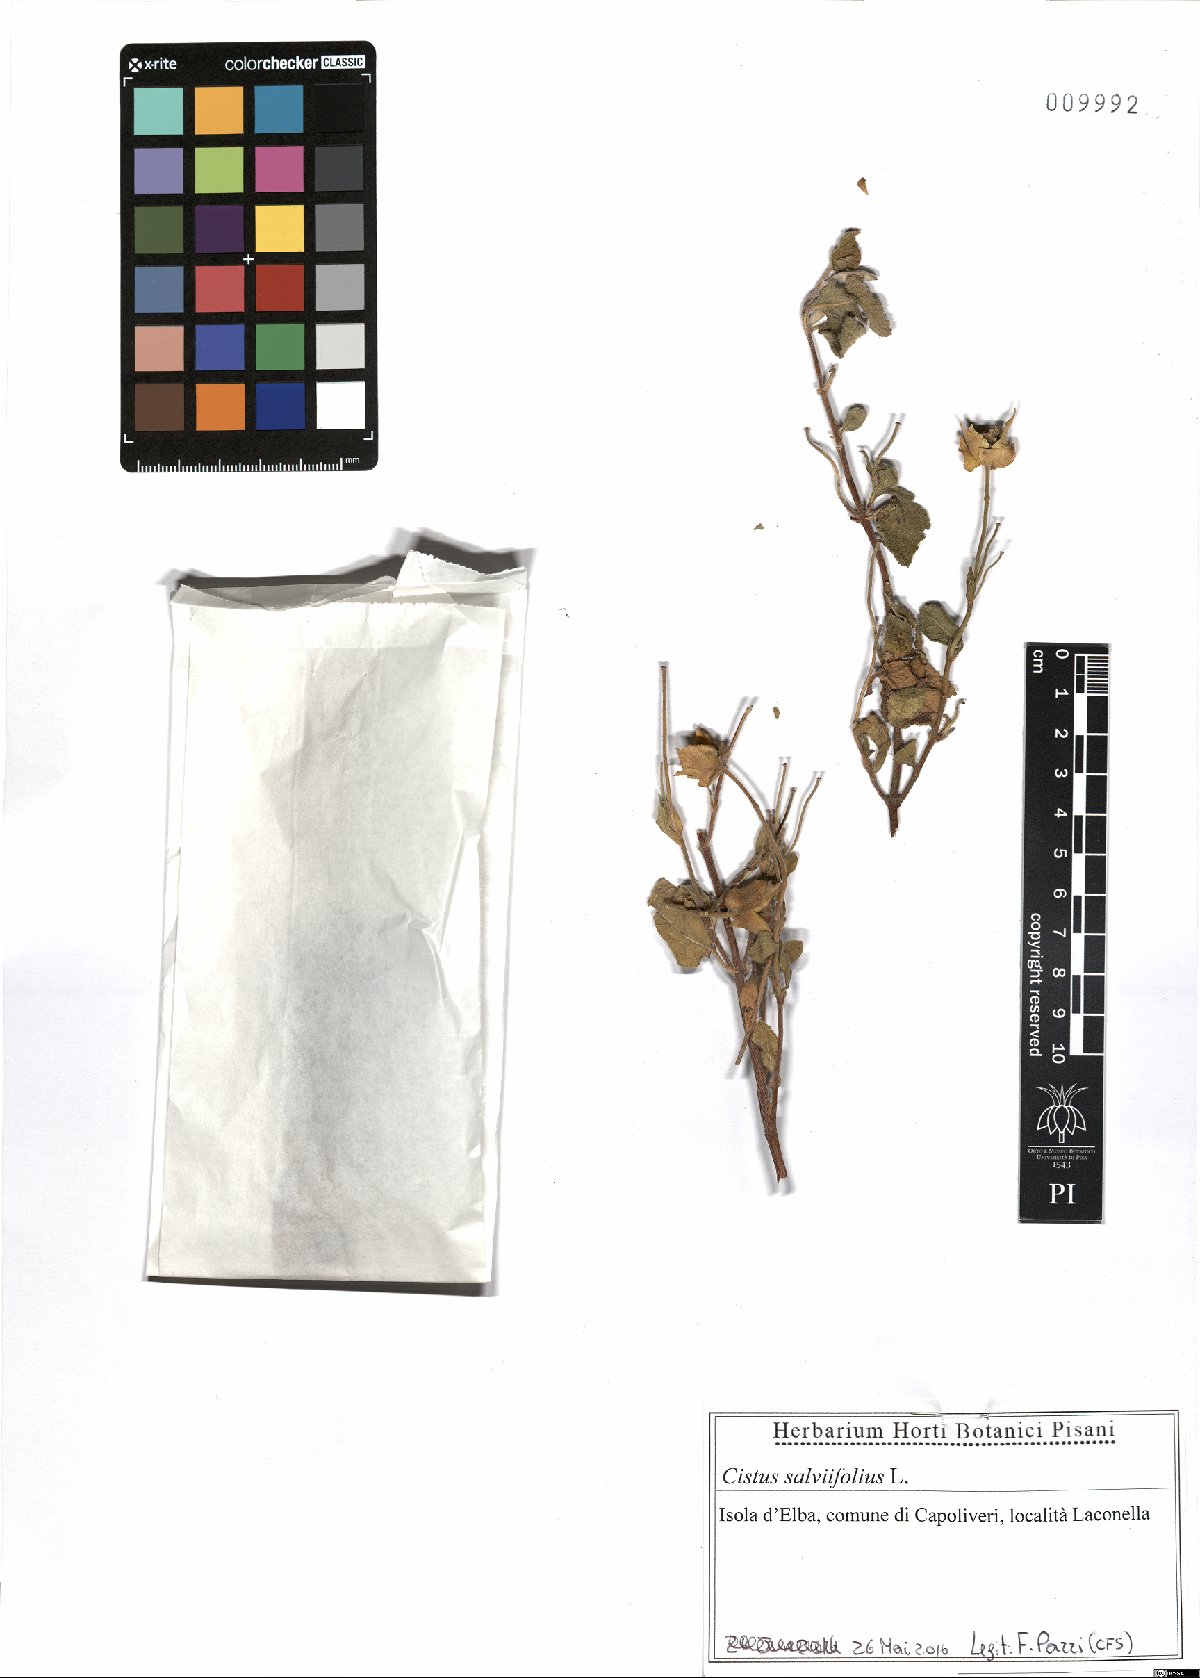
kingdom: Plantae
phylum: Tracheophyta
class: Magnoliopsida
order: Malvales
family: Cistaceae
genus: Cistus
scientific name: Cistus salviifolius
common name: Salvia cistus
